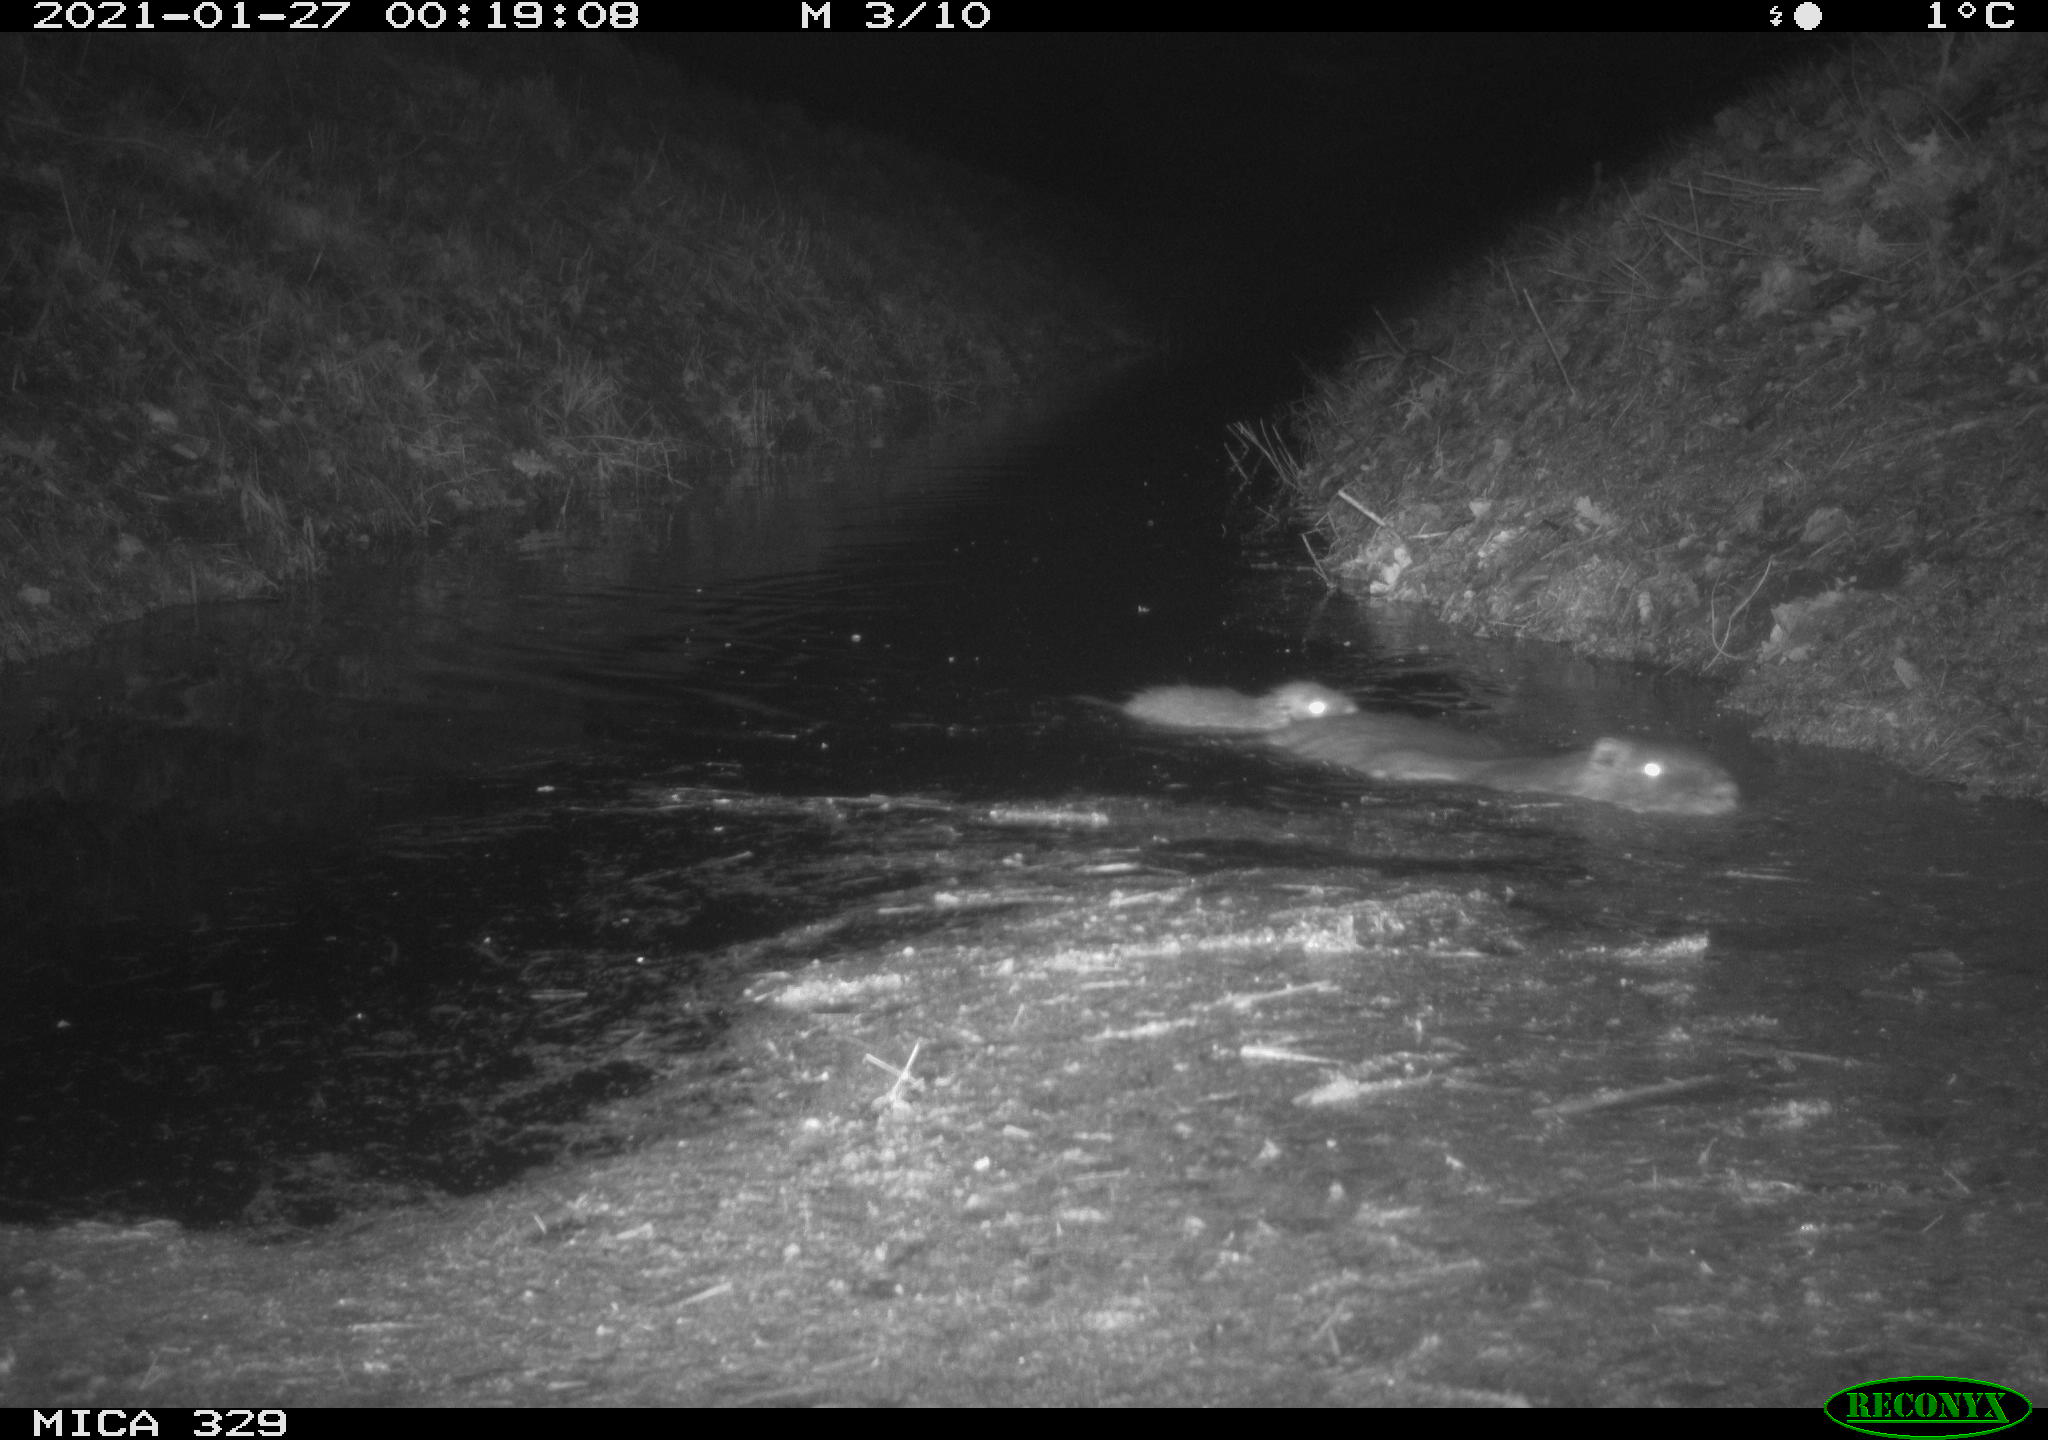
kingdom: Animalia
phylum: Chordata
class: Mammalia
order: Rodentia
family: Myocastoridae
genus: Myocastor
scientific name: Myocastor coypus
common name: Coypu
